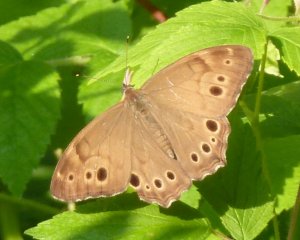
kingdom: Animalia
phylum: Arthropoda
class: Insecta
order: Lepidoptera
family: Nymphalidae
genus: Lethe
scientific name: Lethe anthedon
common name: Northern Pearly-Eye
